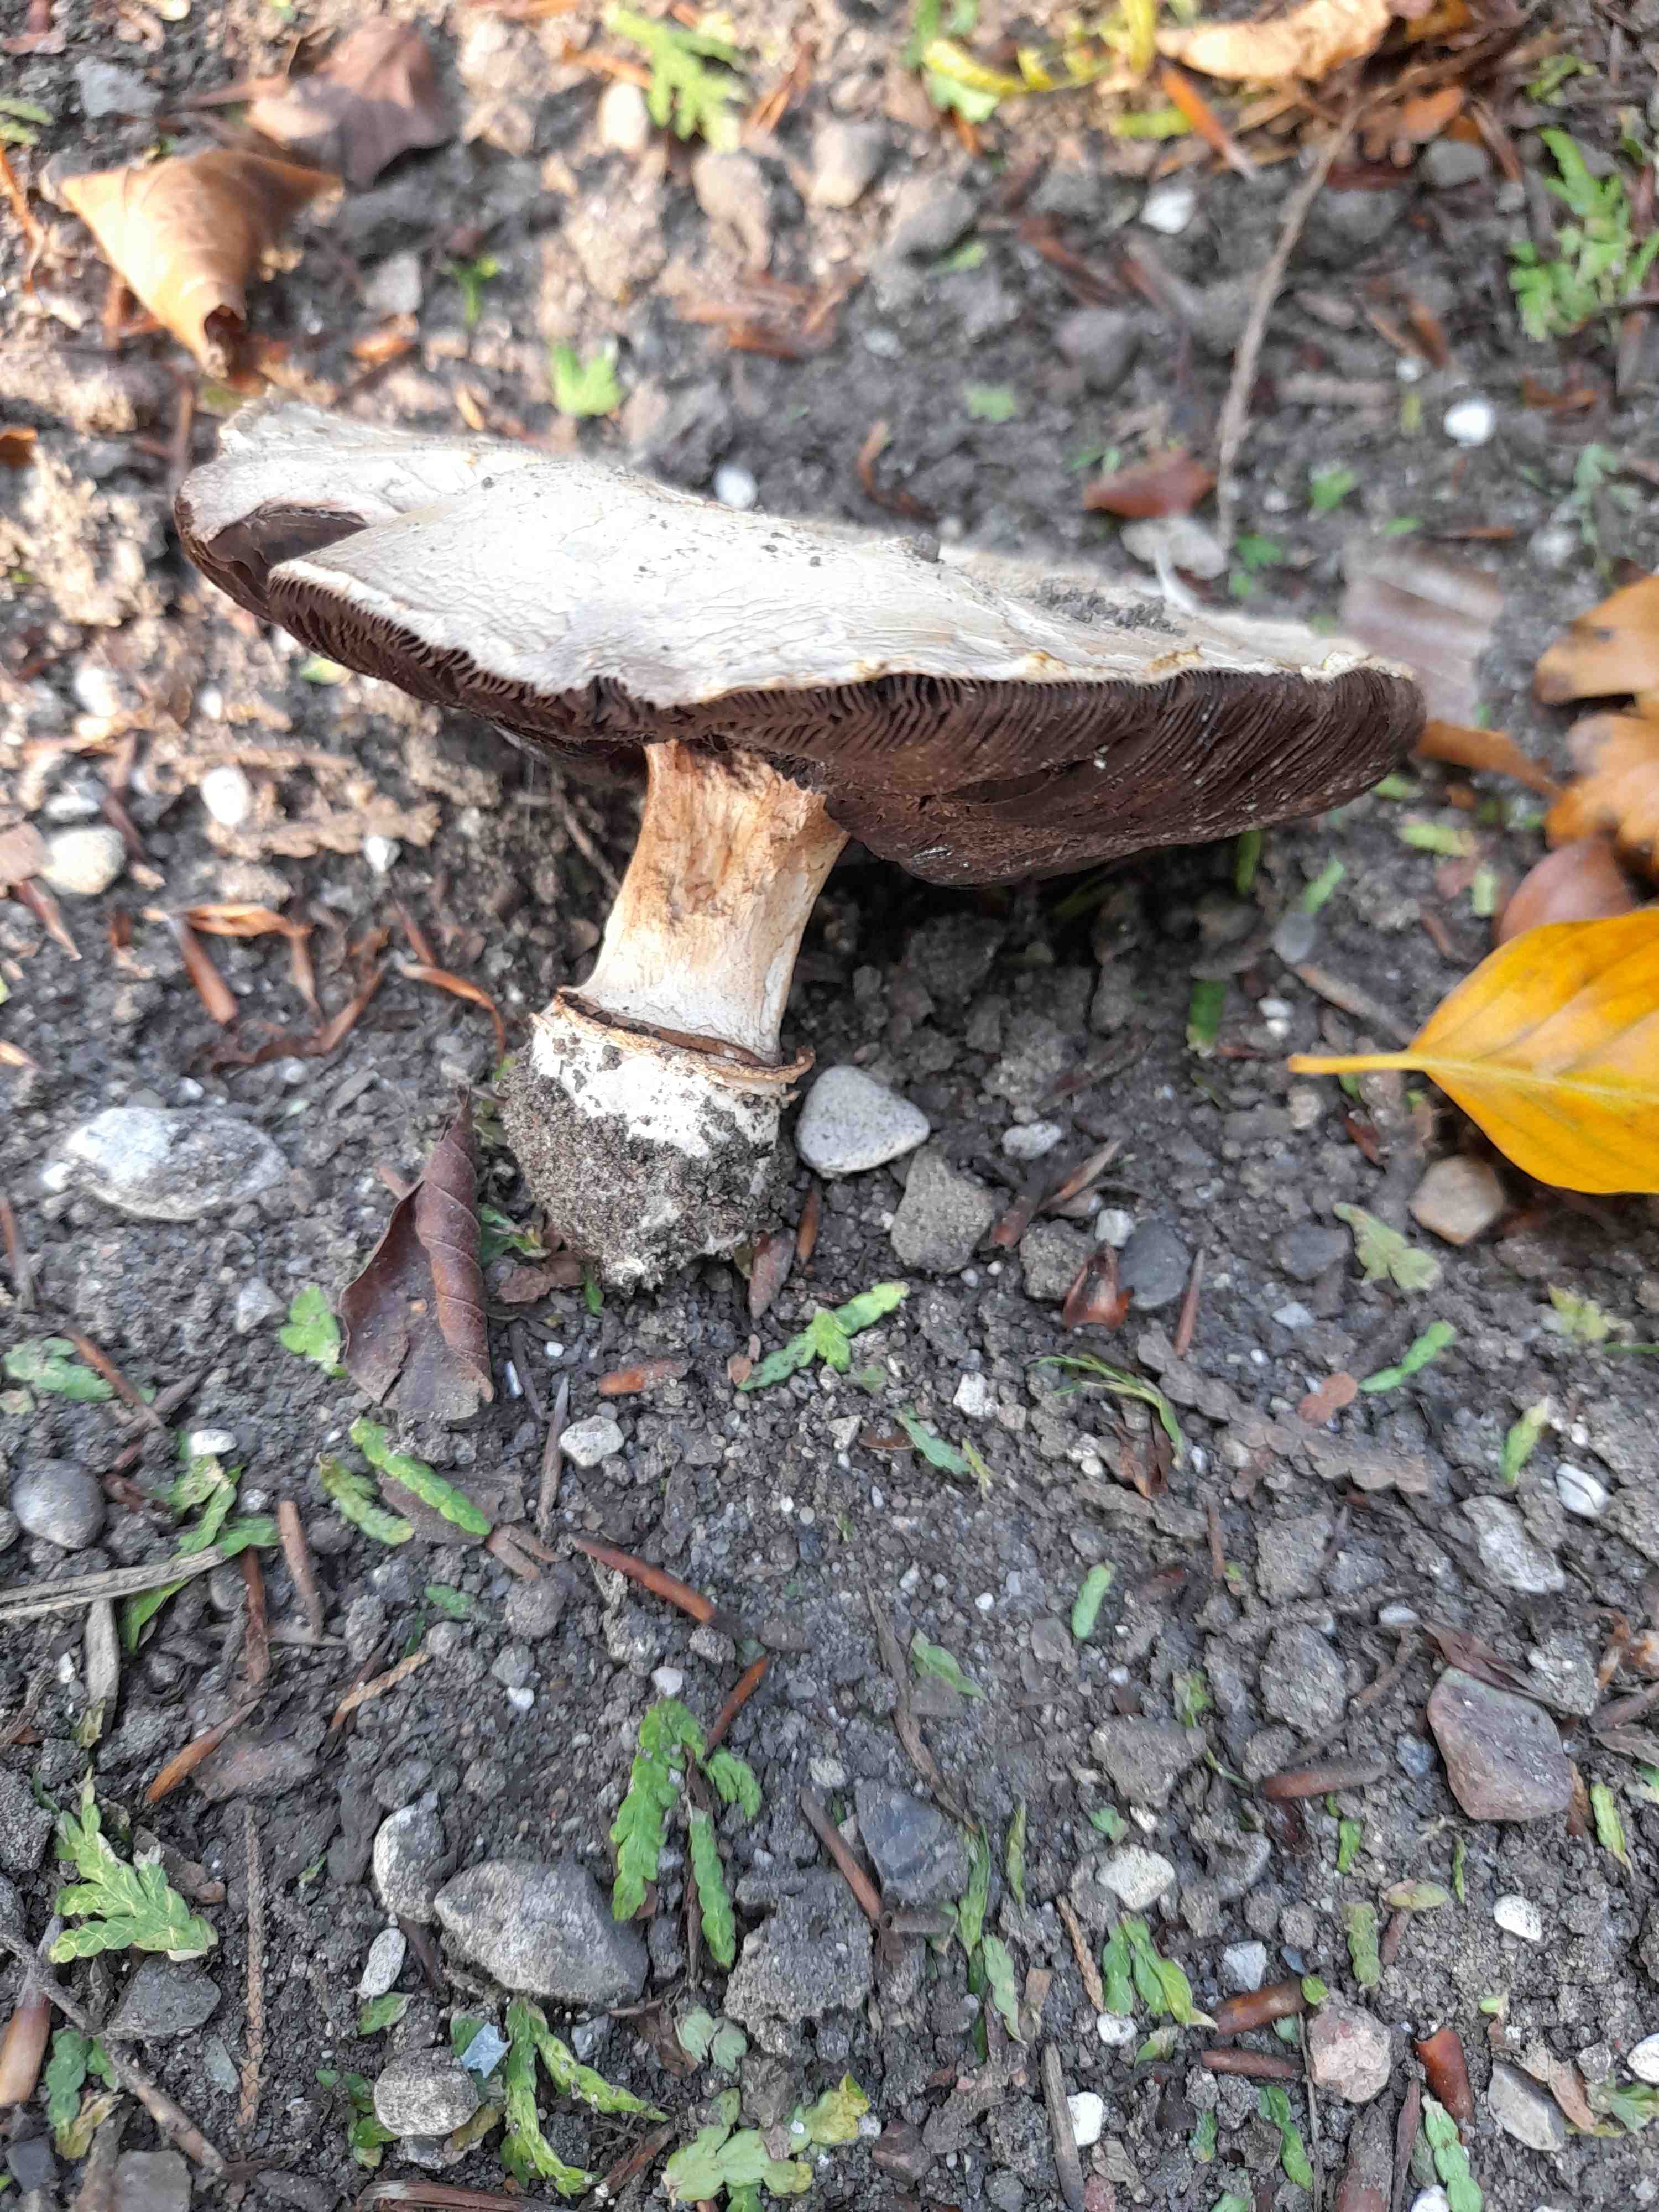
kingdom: Fungi
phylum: Basidiomycota
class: Agaricomycetes
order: Agaricales
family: Agaricaceae
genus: Agaricus
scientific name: Agaricus bitorquis
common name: vej-champignon
